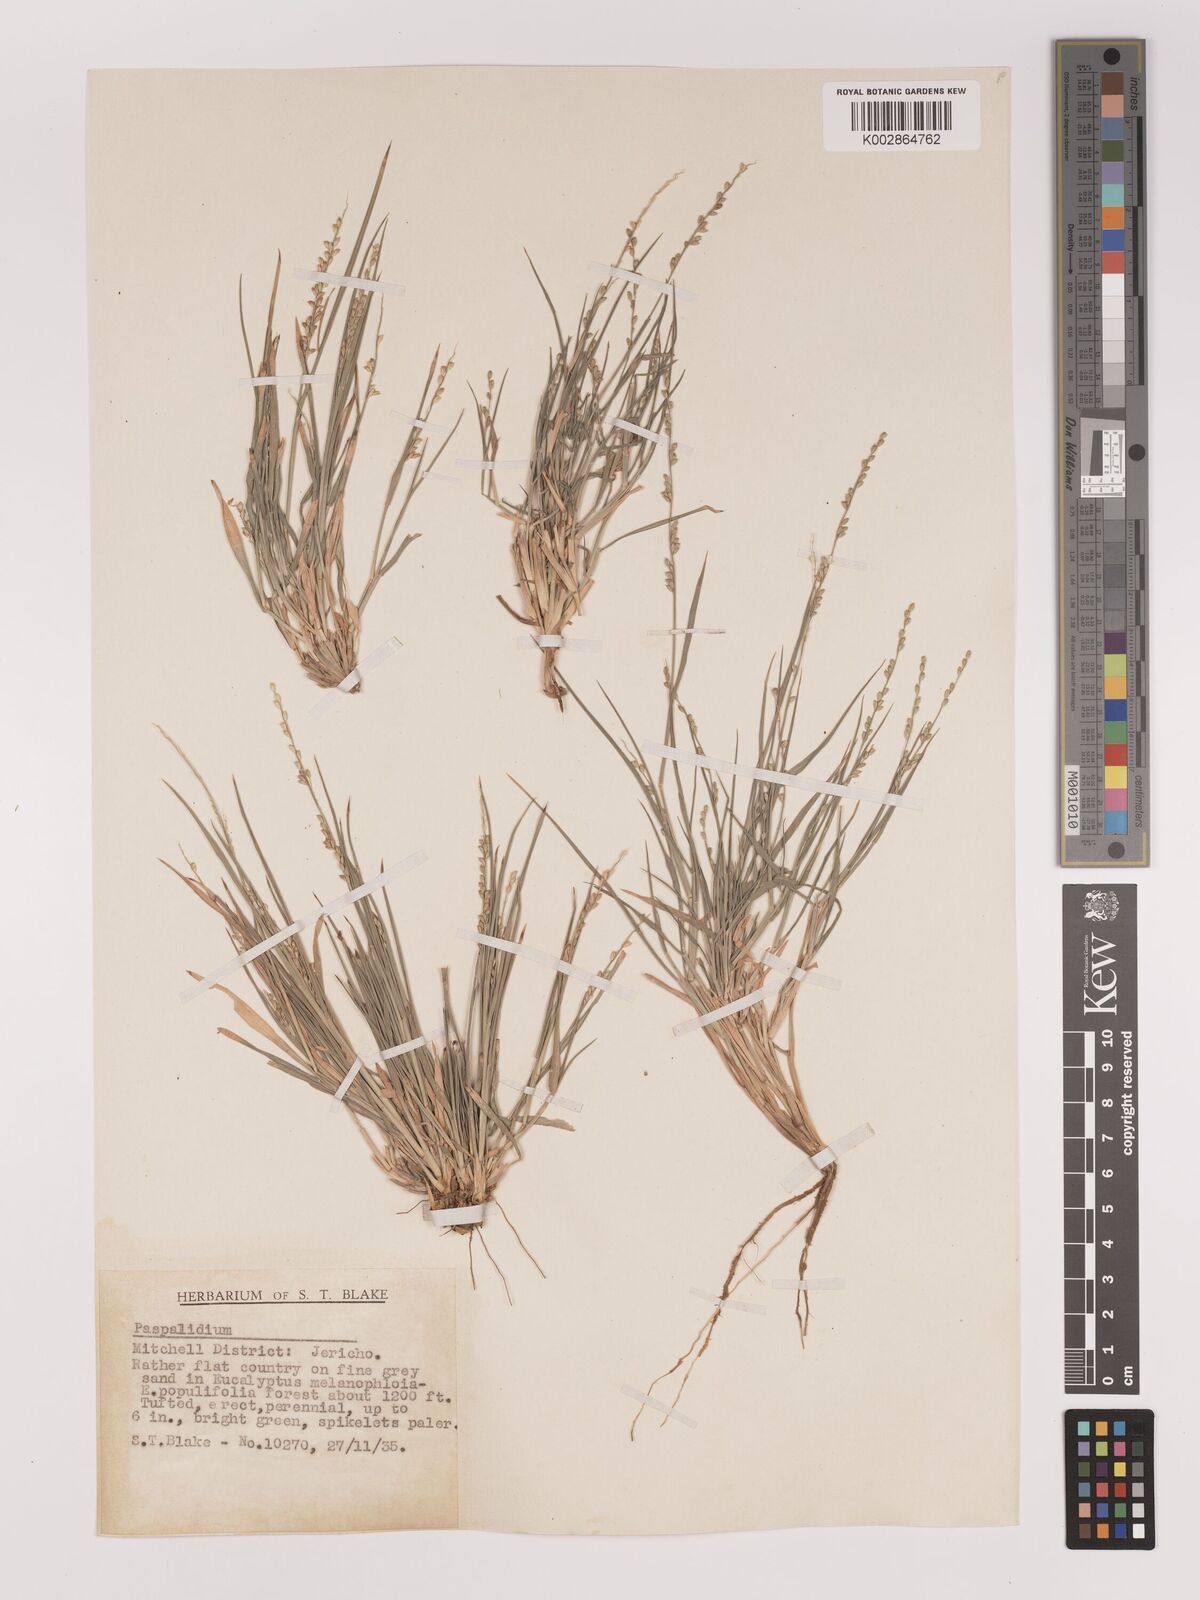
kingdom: Plantae
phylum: Tracheophyta
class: Liliopsida
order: Poales
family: Poaceae
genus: Setaria
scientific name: Setaria constricta
